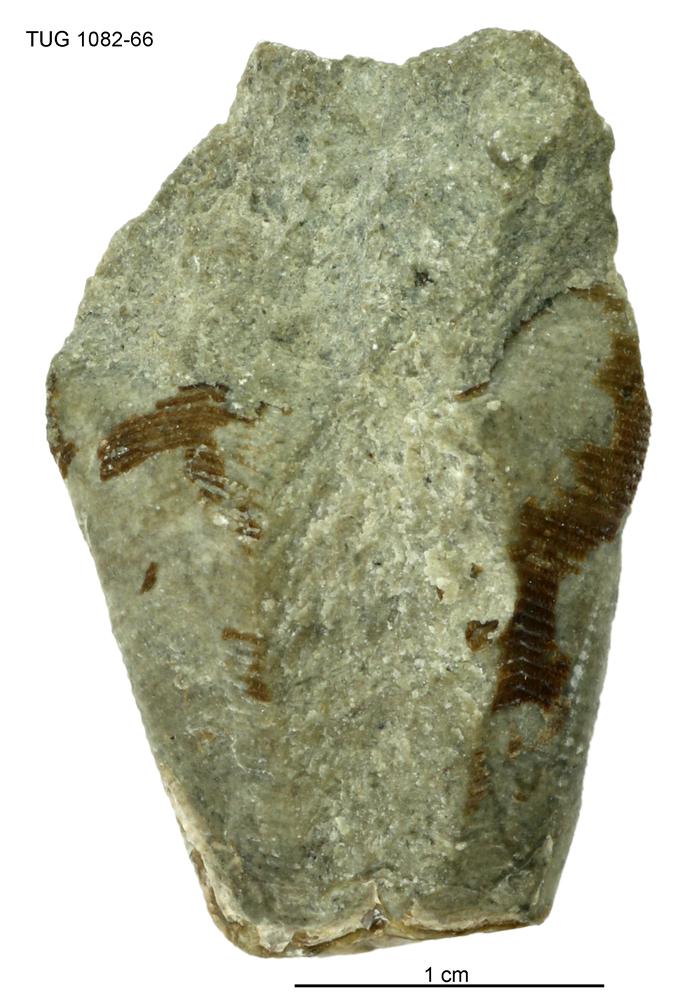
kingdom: Animalia
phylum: Cnidaria
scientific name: Cnidaria
